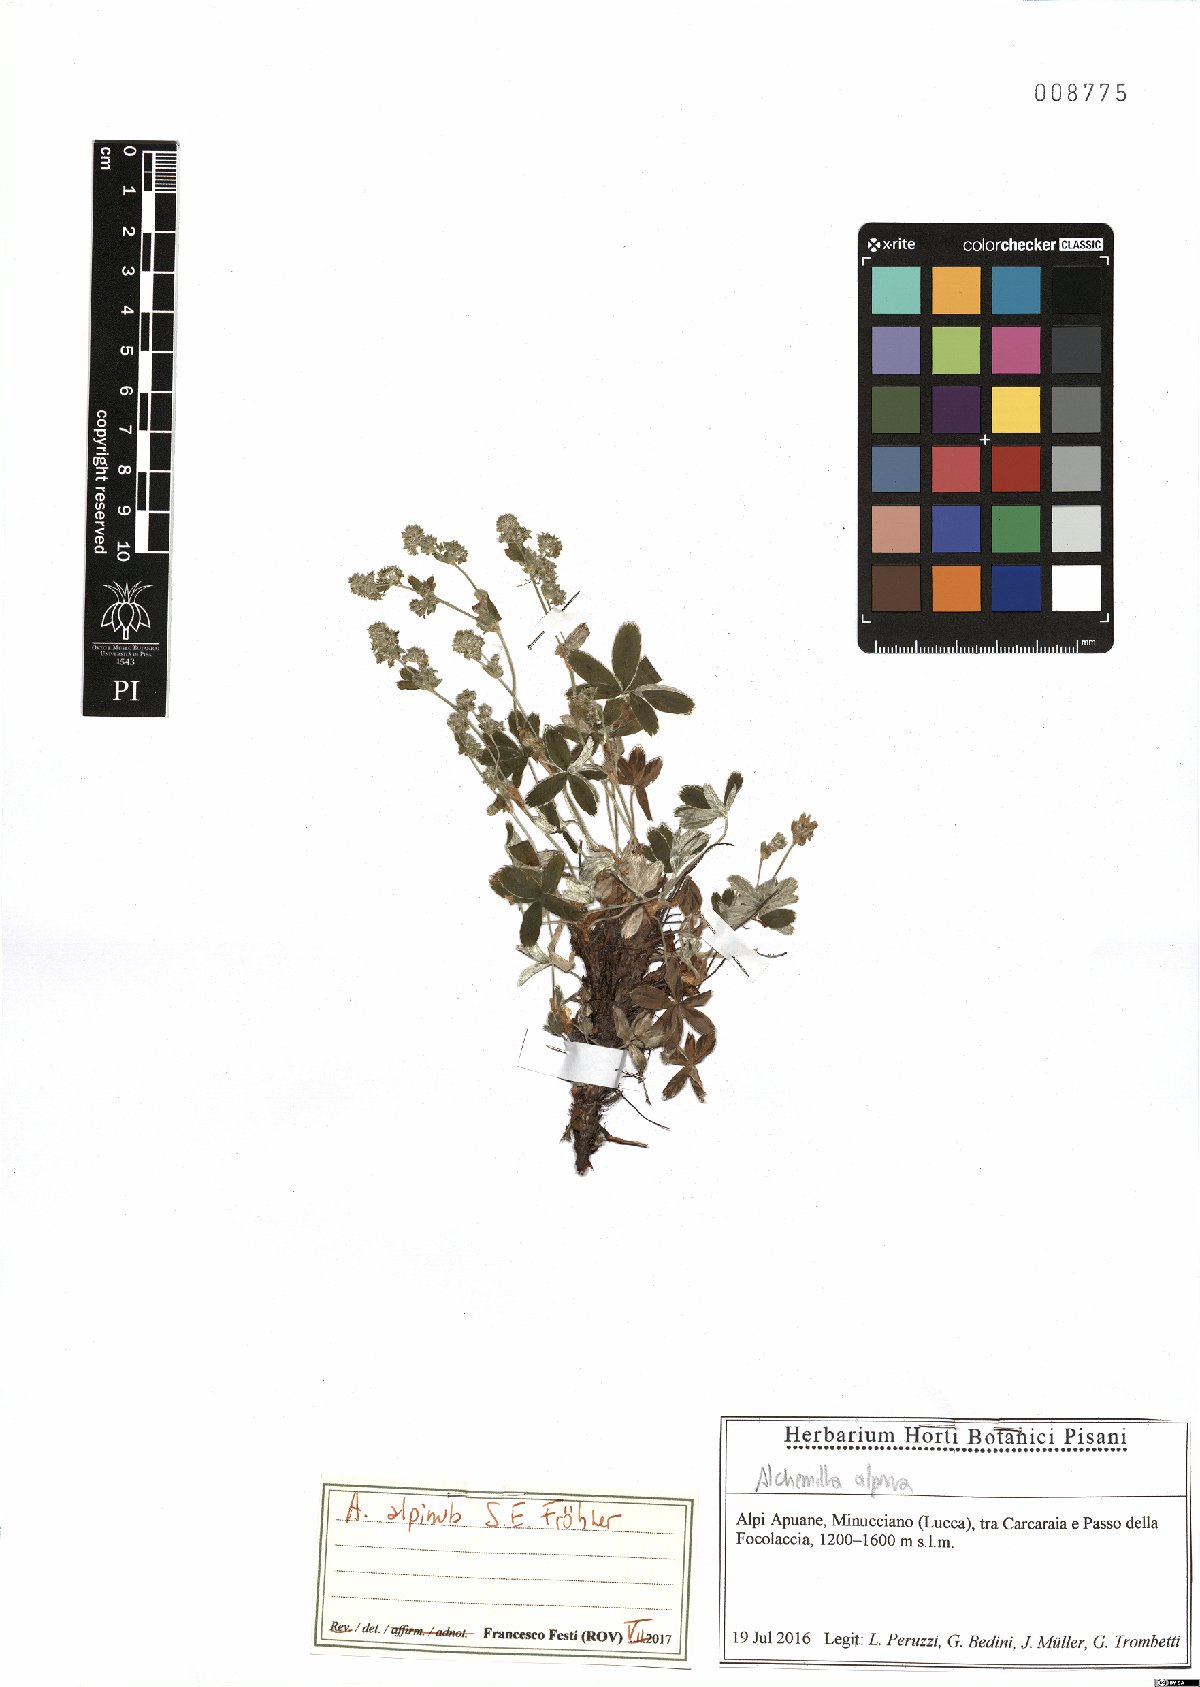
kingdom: Plantae
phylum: Tracheophyta
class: Magnoliopsida
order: Rosales
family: Rosaceae
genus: Alchemilla
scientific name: Alchemilla alpinula
